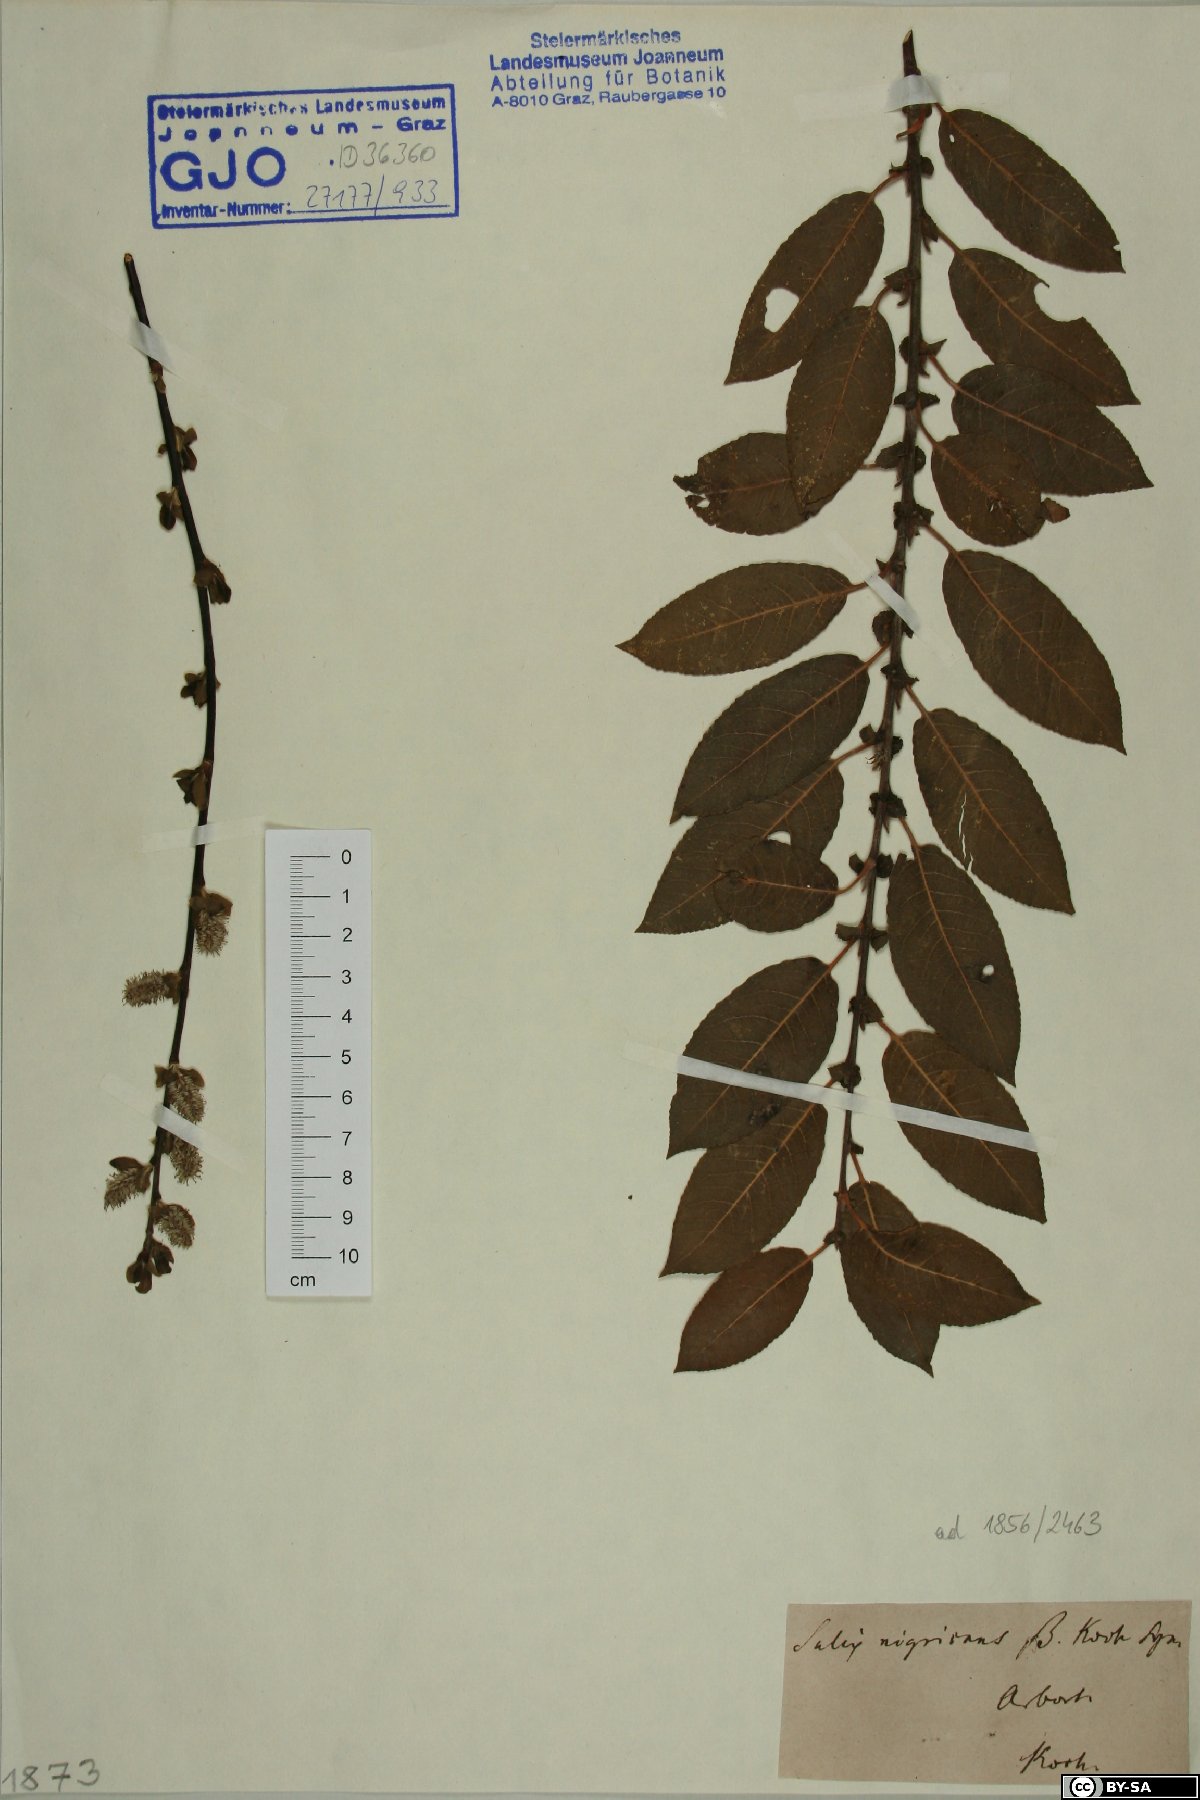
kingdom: Plantae
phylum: Tracheophyta
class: Magnoliopsida
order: Malpighiales
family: Salicaceae
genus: Salix
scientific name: Salix myrsinifolia
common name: Dark-leaved willow
